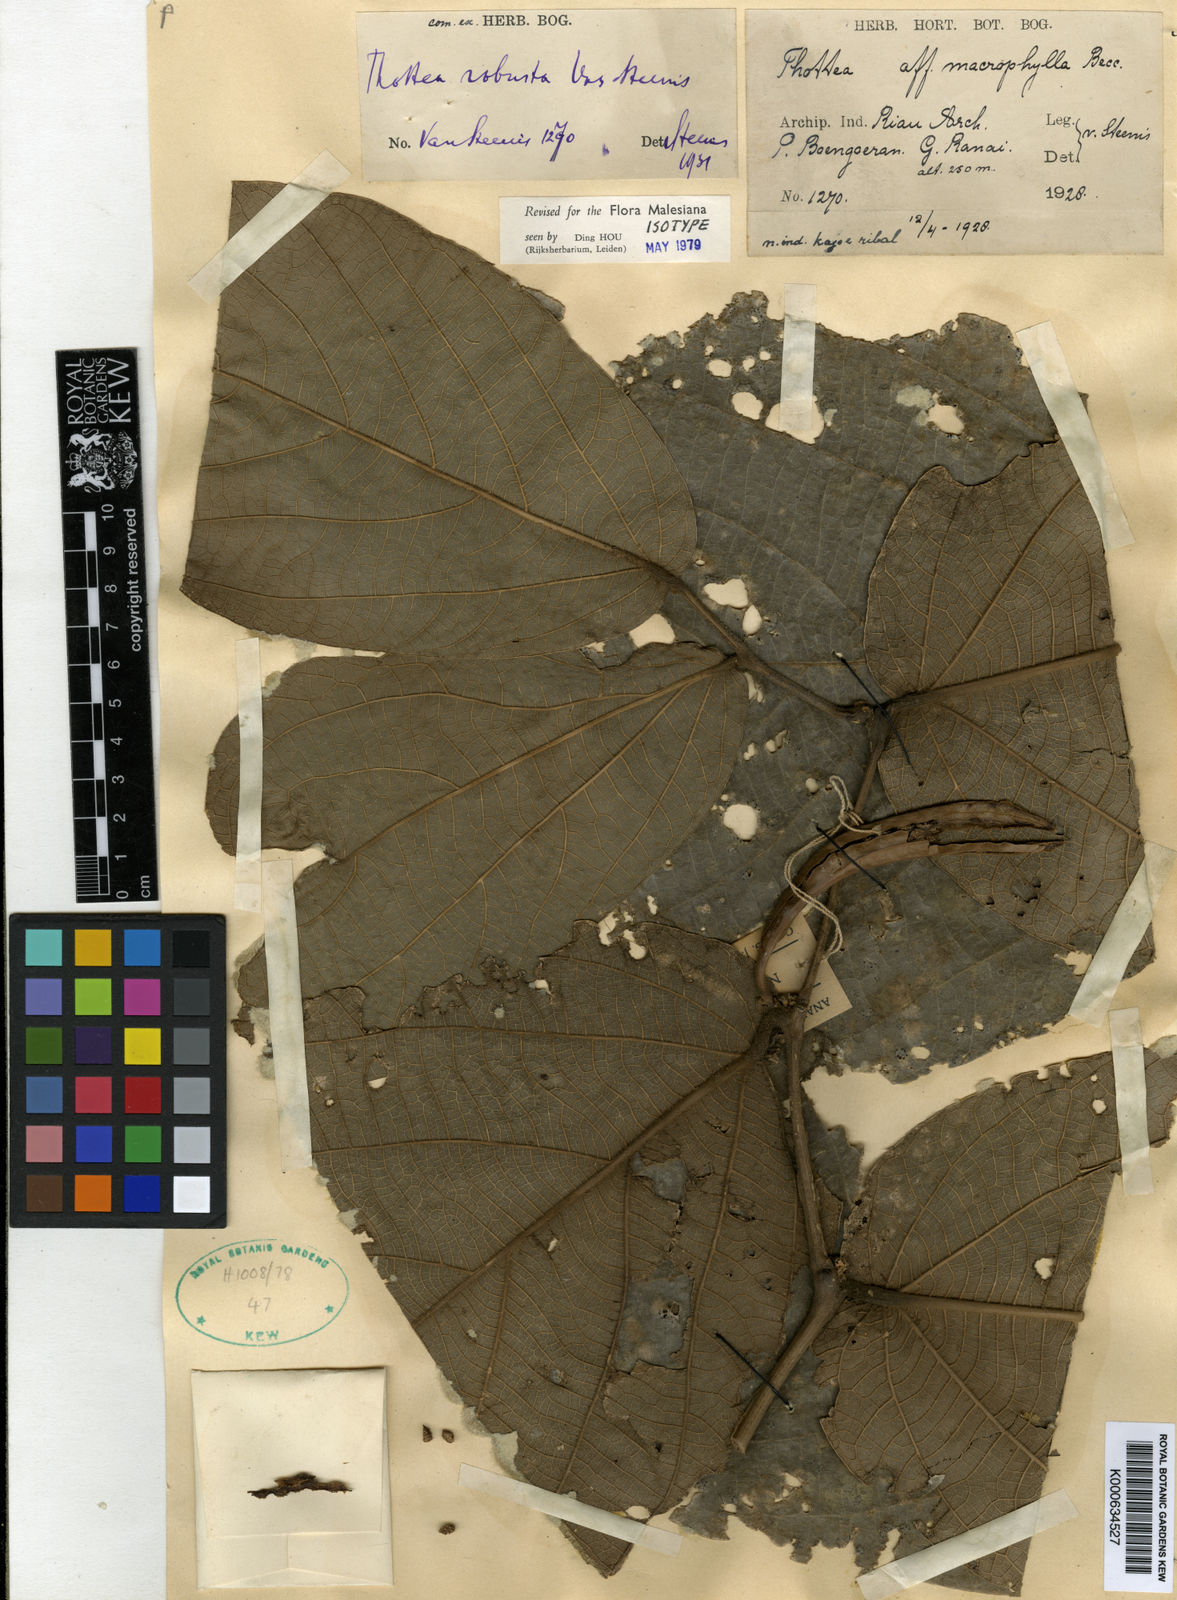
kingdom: Plantae
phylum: Tracheophyta
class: Magnoliopsida
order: Piperales
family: Aristolochiaceae
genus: Thottea
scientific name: Thottea macrophylla
